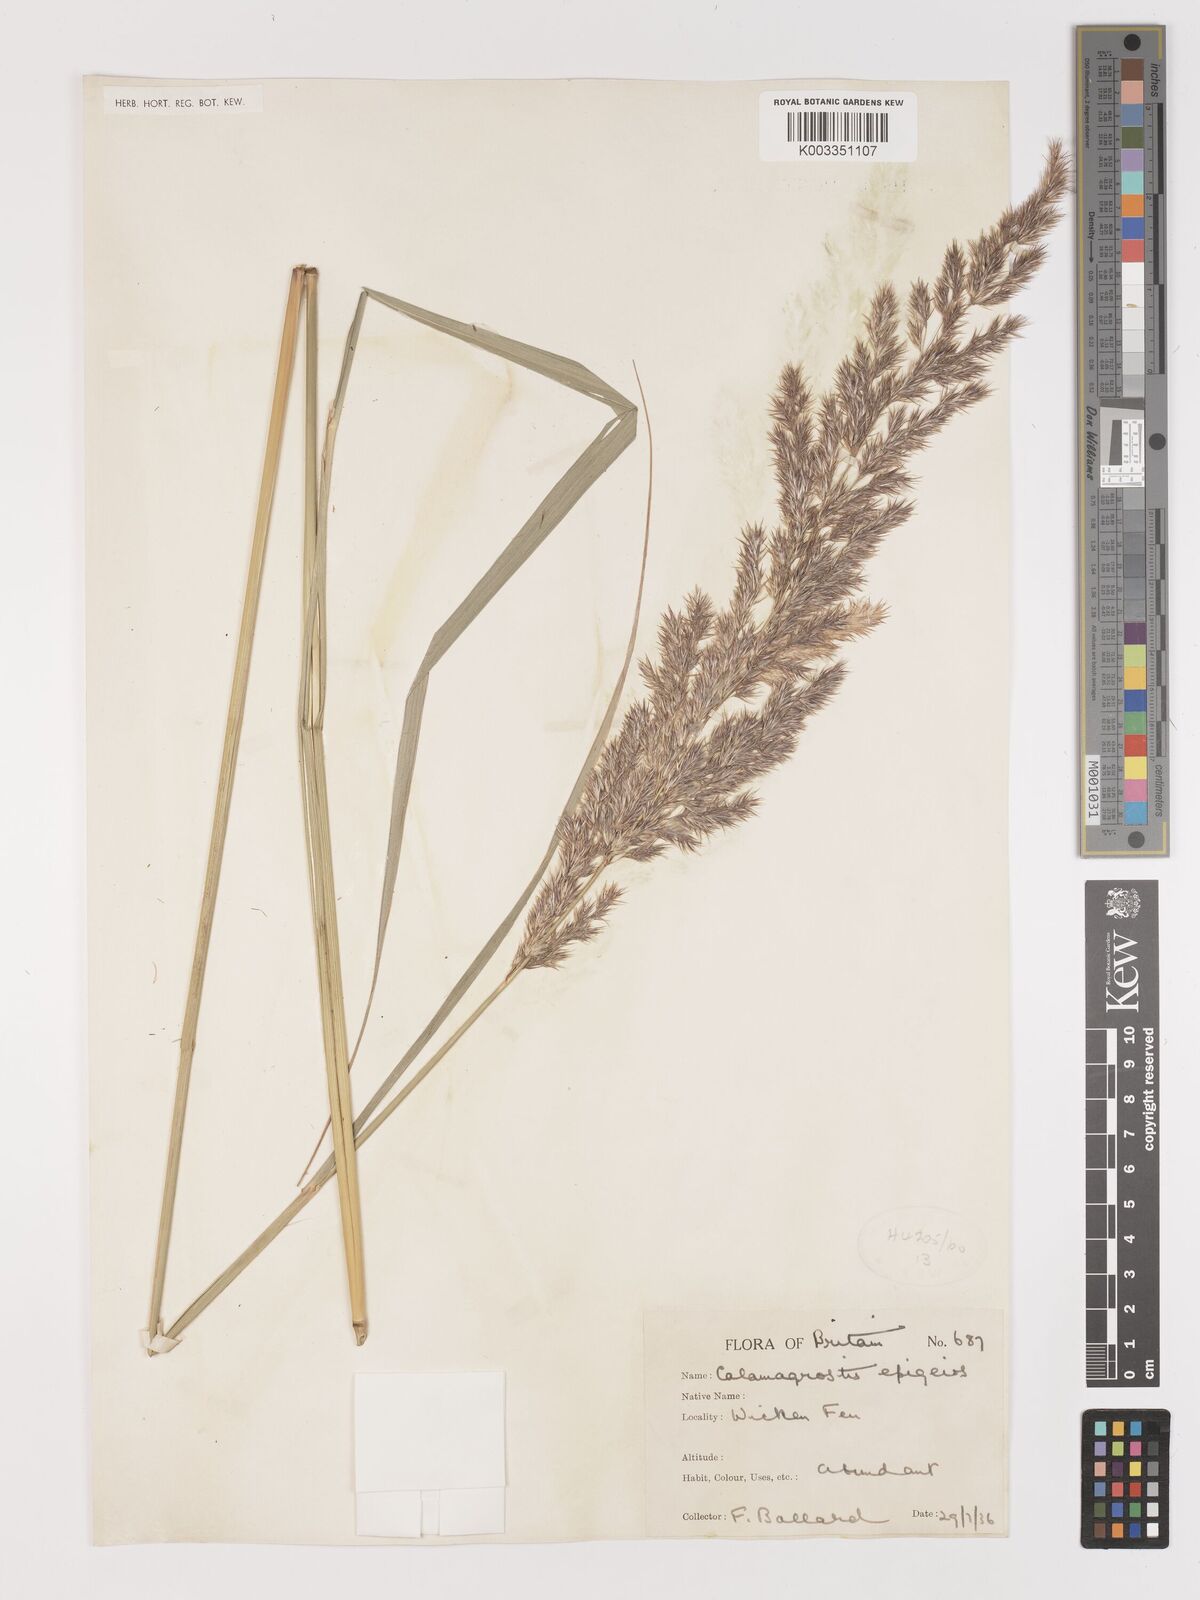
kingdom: Plantae
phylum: Tracheophyta
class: Liliopsida
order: Poales
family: Poaceae
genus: Calamagrostis
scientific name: Calamagrostis
